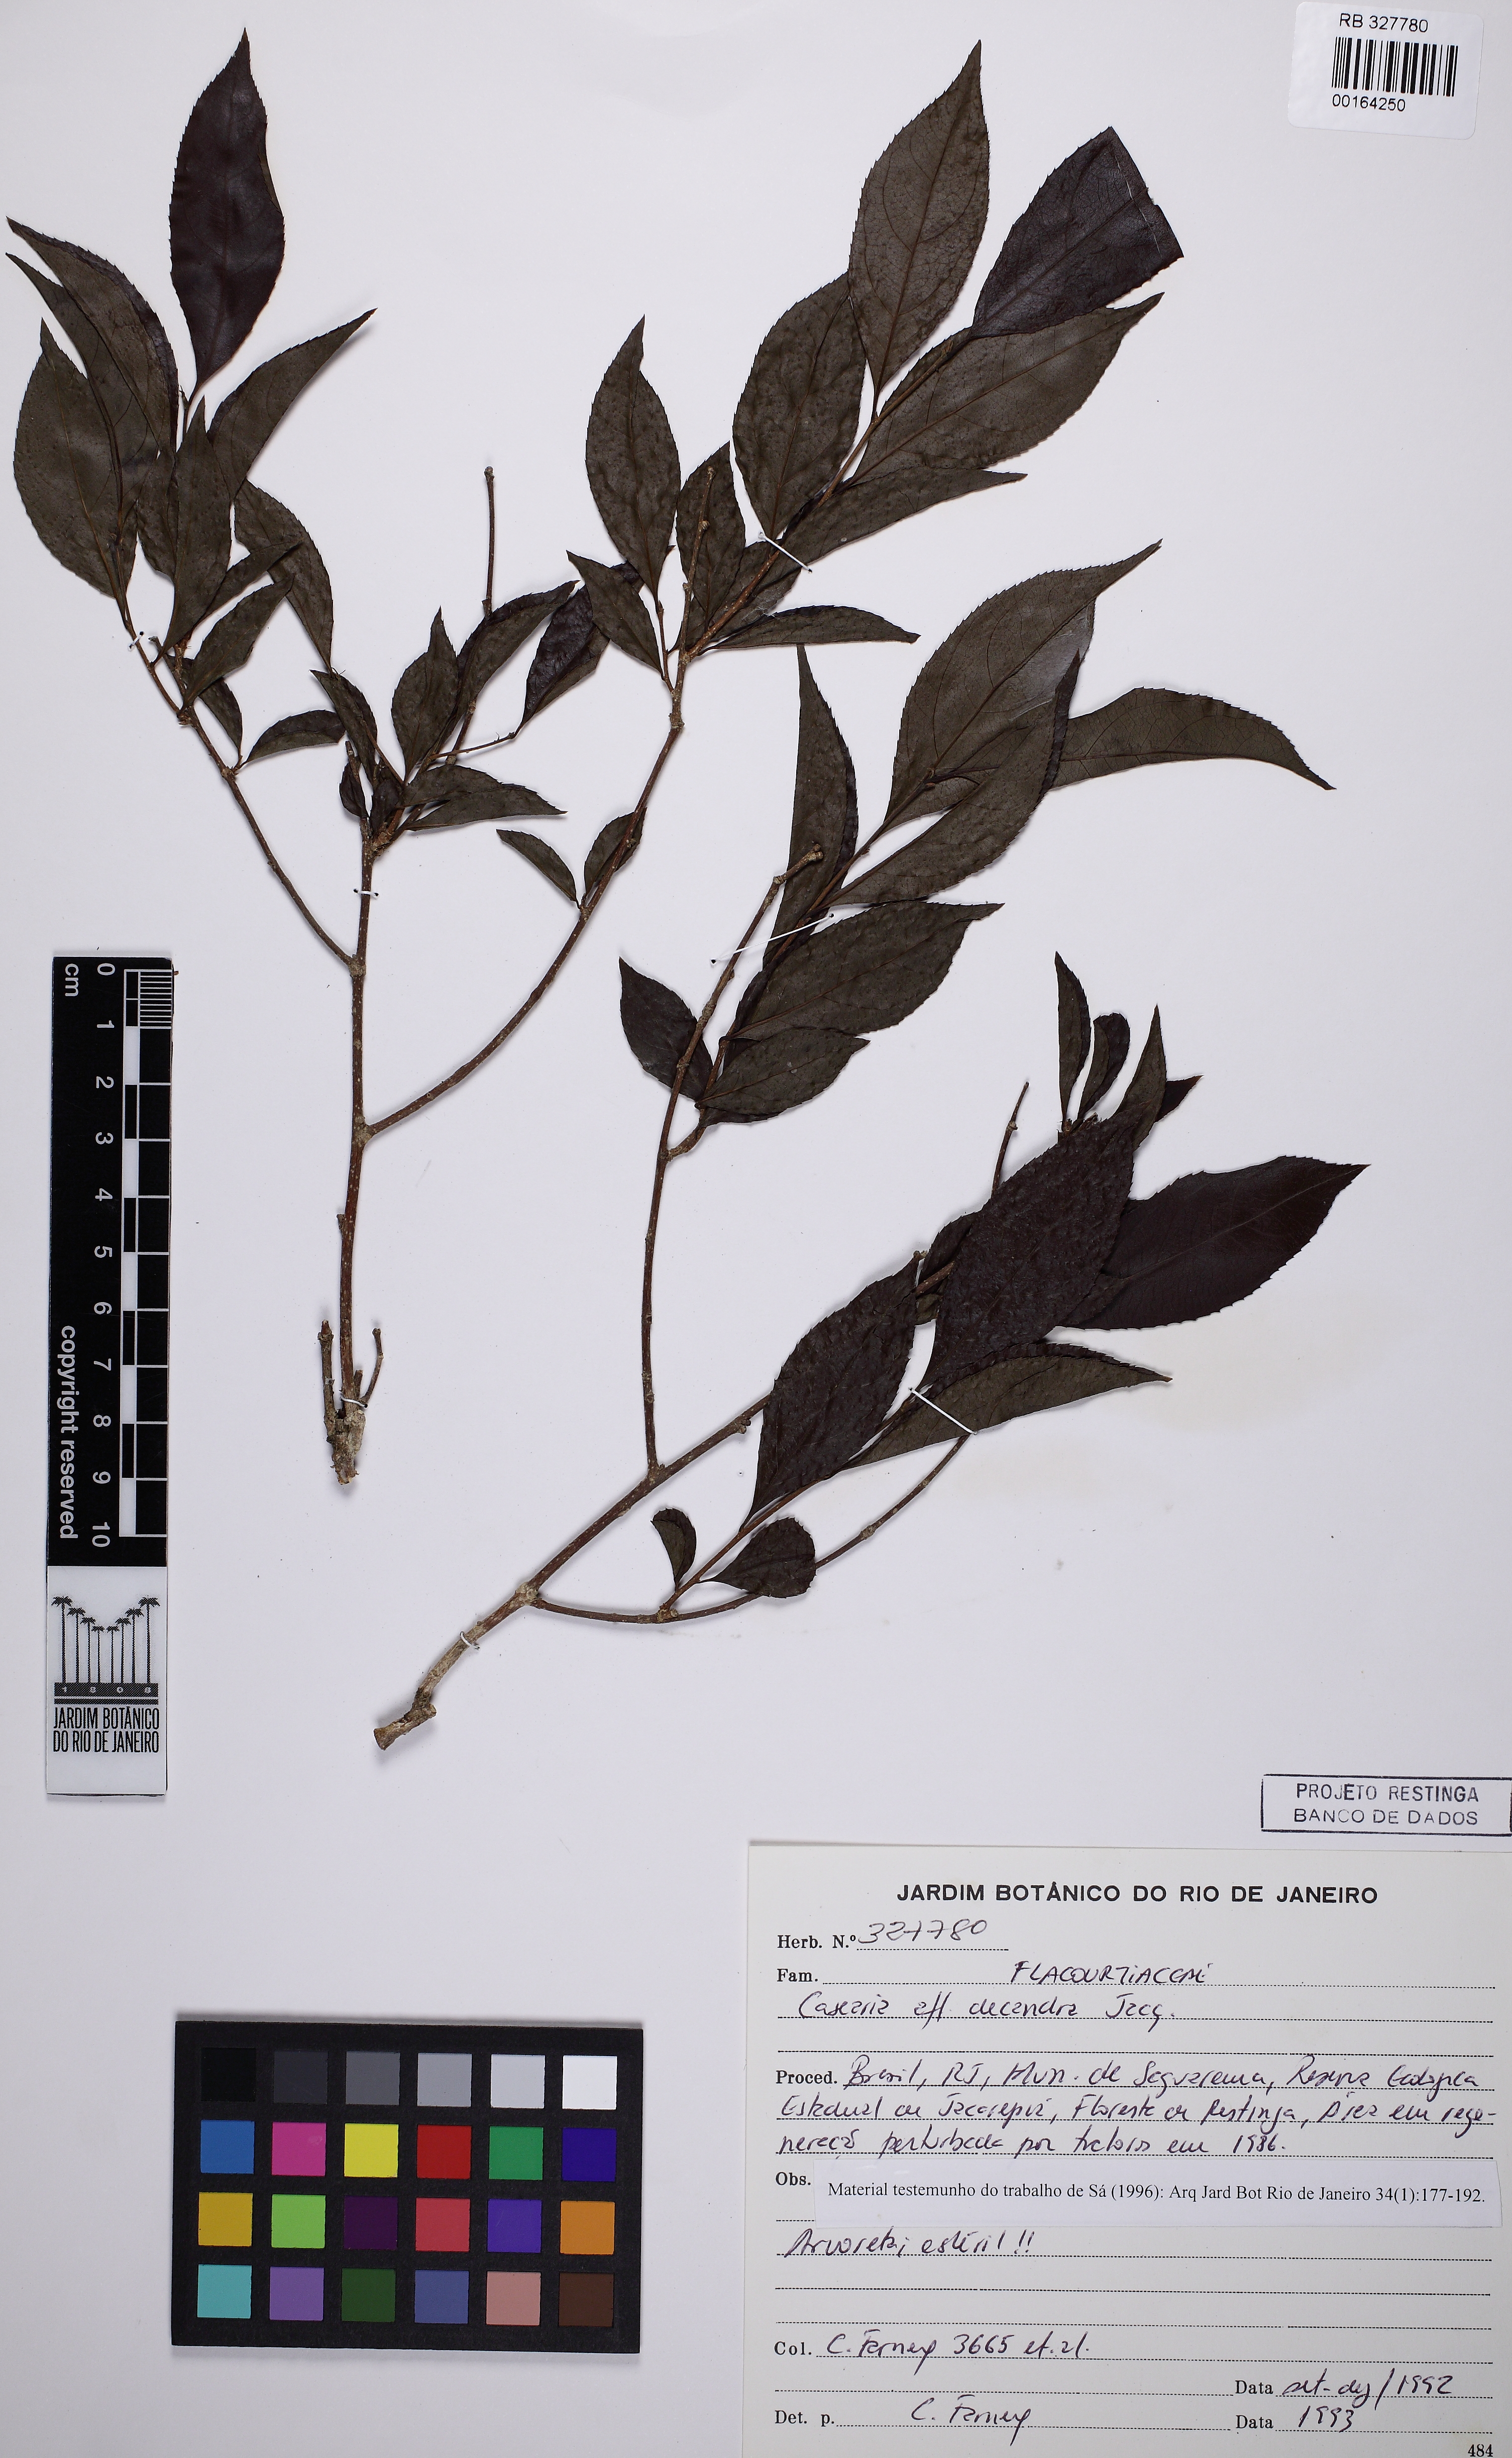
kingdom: Plantae
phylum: Tracheophyta
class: Magnoliopsida
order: Malpighiales
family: Salicaceae
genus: Casearia
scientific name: Casearia decandra
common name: Crack open
